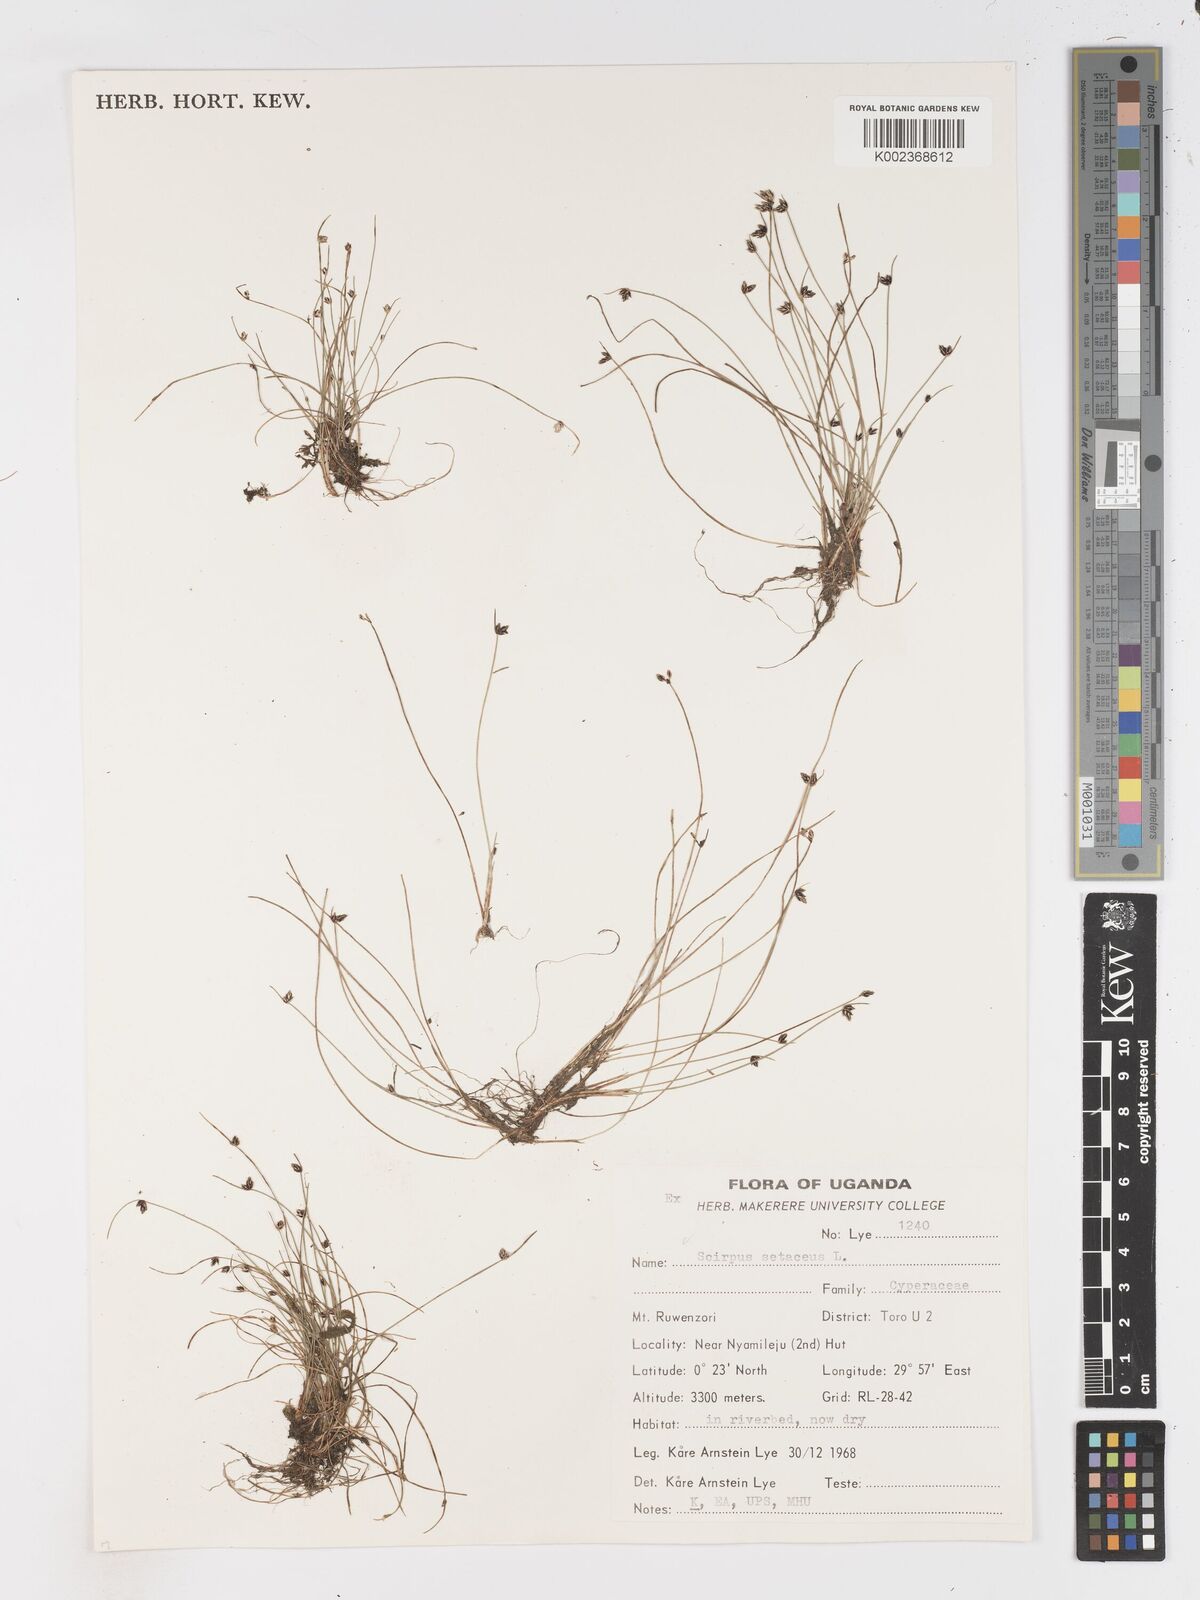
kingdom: Plantae
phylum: Tracheophyta
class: Liliopsida
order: Poales
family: Cyperaceae
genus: Isolepis
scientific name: Isolepis setacea
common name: Bristle club-rush
